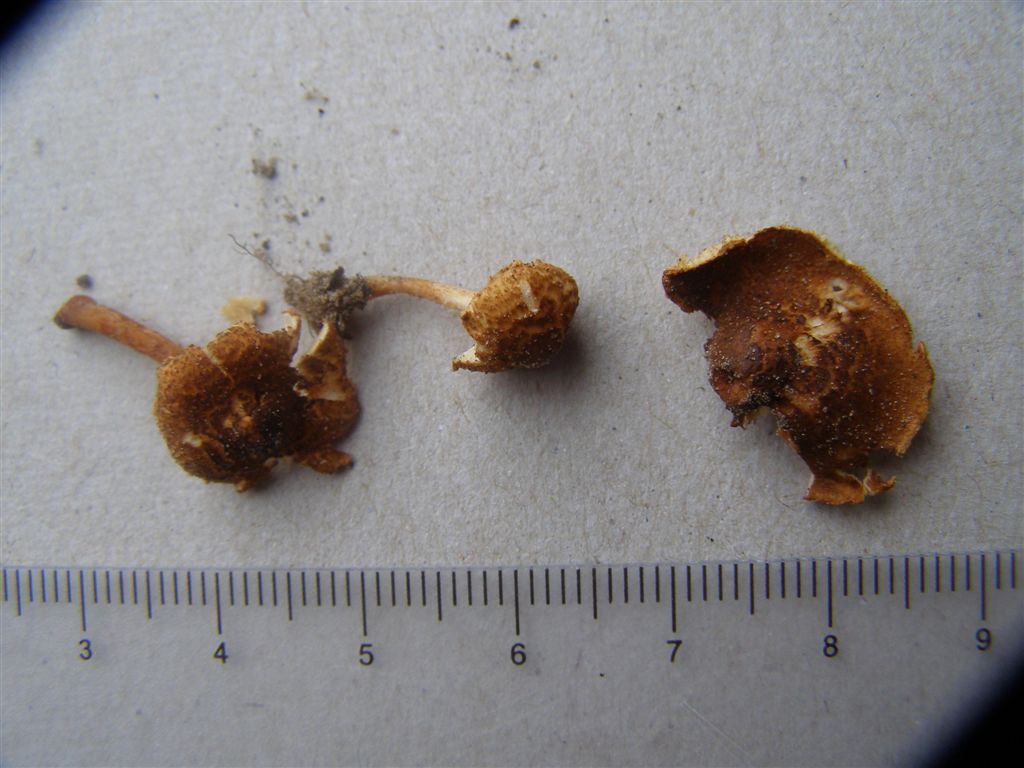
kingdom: Fungi
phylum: Basidiomycota
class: Agaricomycetes
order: Agaricales
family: Agaricaceae
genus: Lepiota
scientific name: Lepiota castanea
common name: ræverød parasolhat
